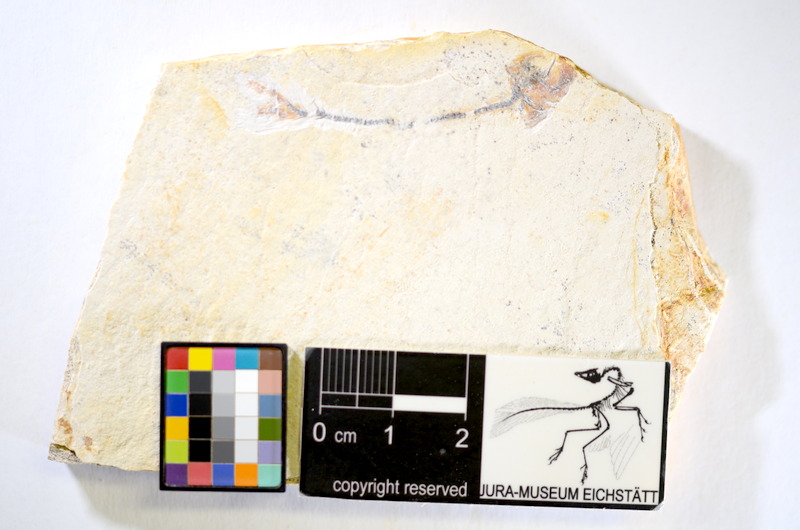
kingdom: Animalia
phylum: Chordata
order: Salmoniformes
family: Orthogonikleithridae
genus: Orthogonikleithrus
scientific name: Orthogonikleithrus hoelli
